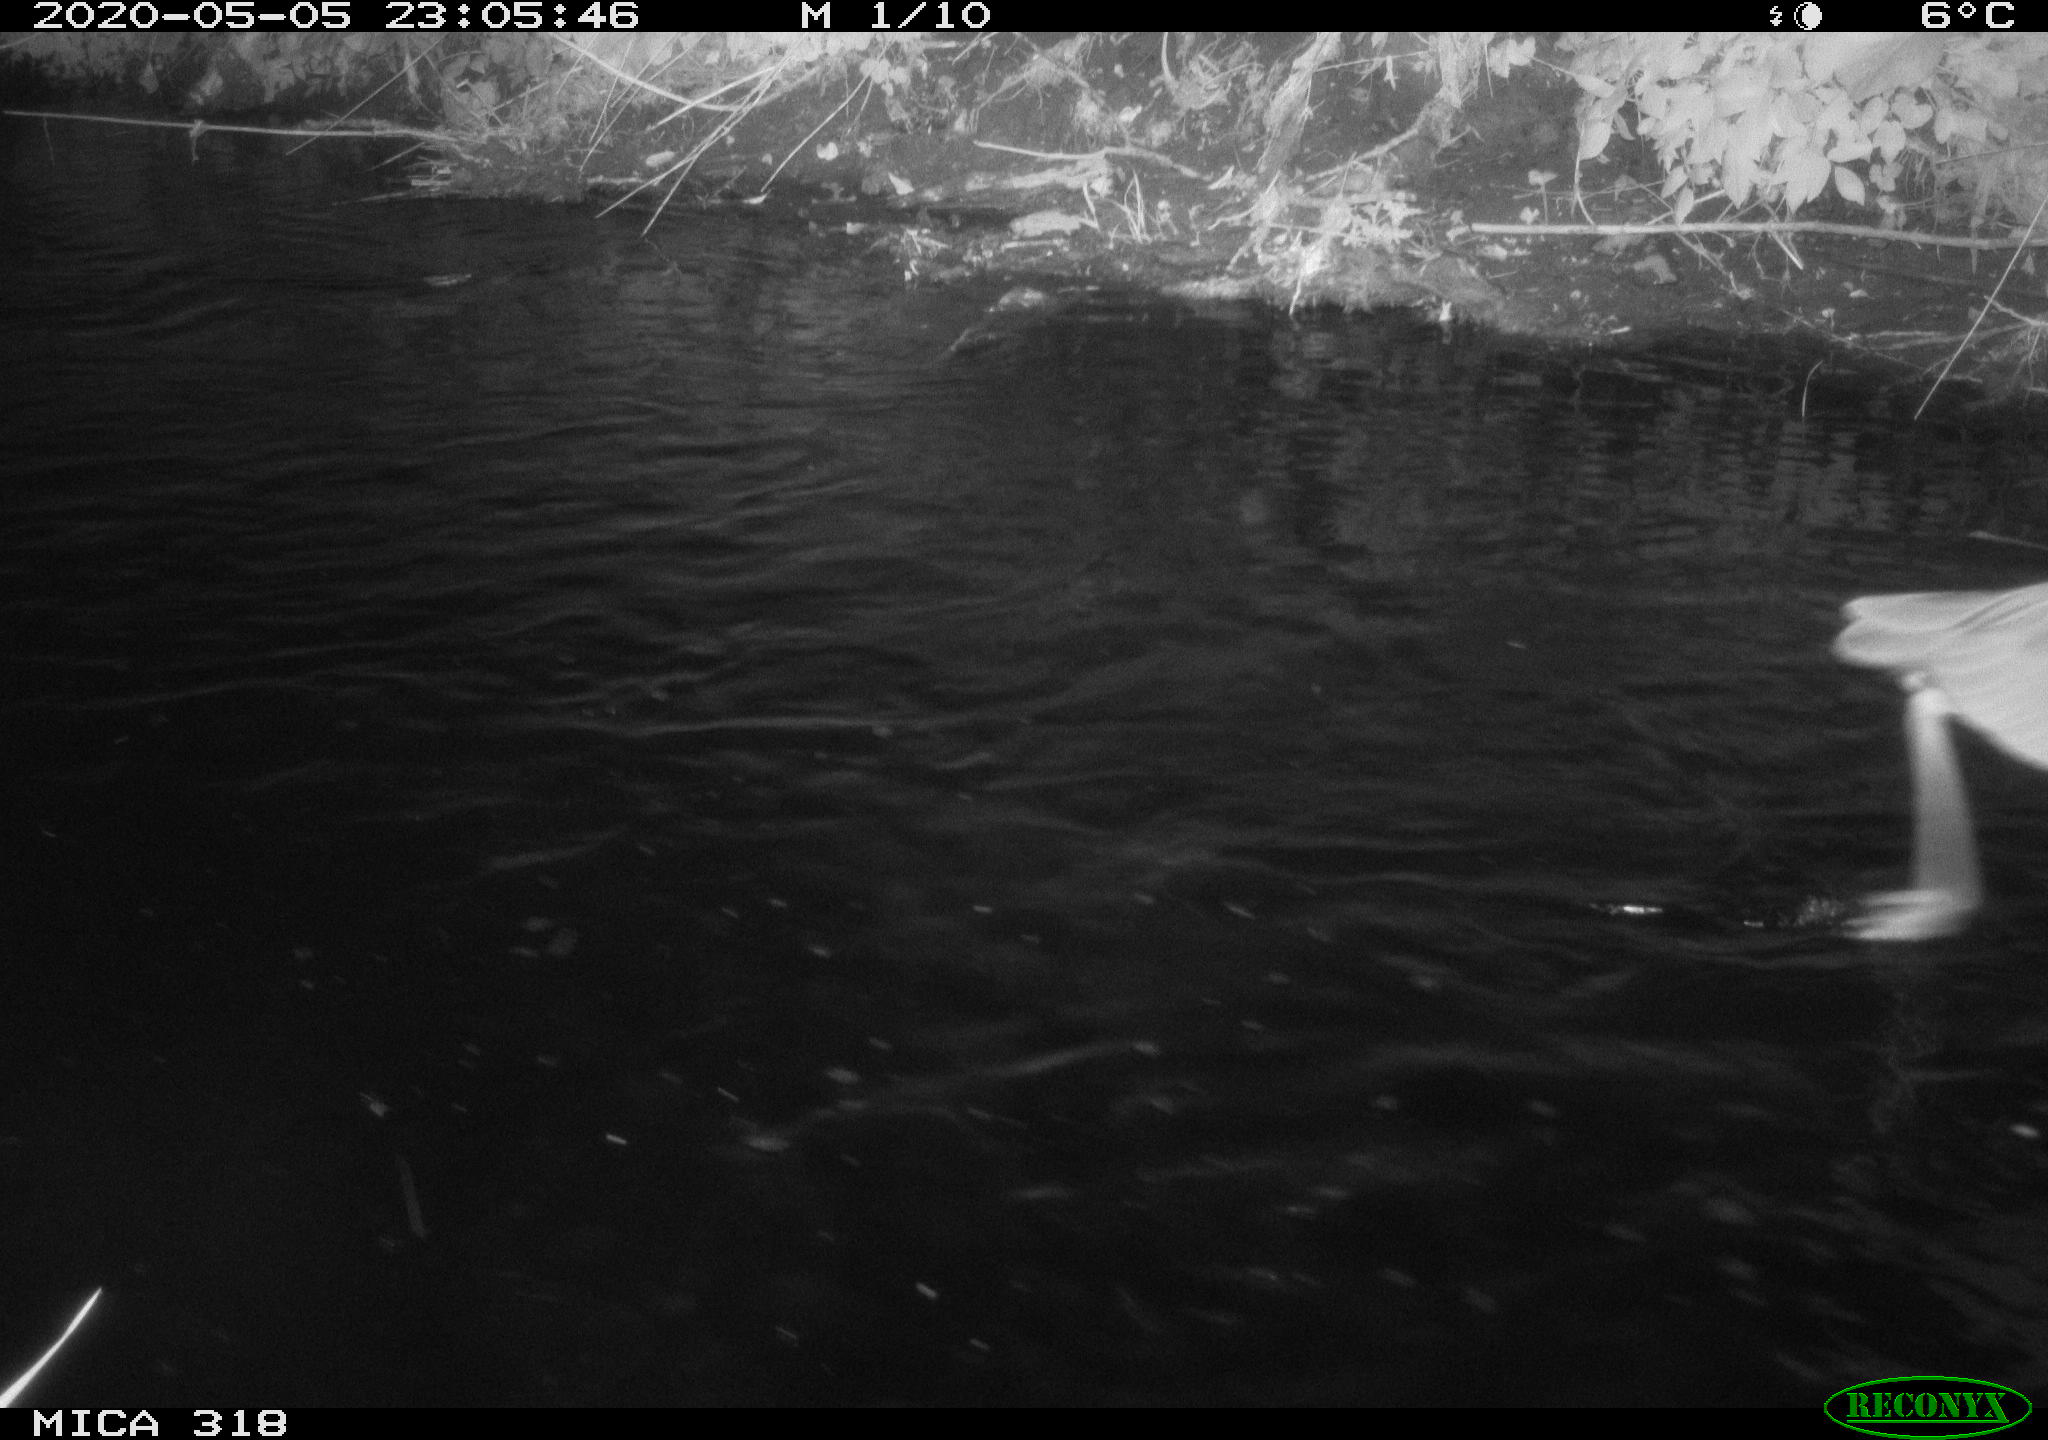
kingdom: Animalia
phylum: Chordata
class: Aves
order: Anseriformes
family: Anatidae
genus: Anas
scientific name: Anas platyrhynchos
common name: Mallard
